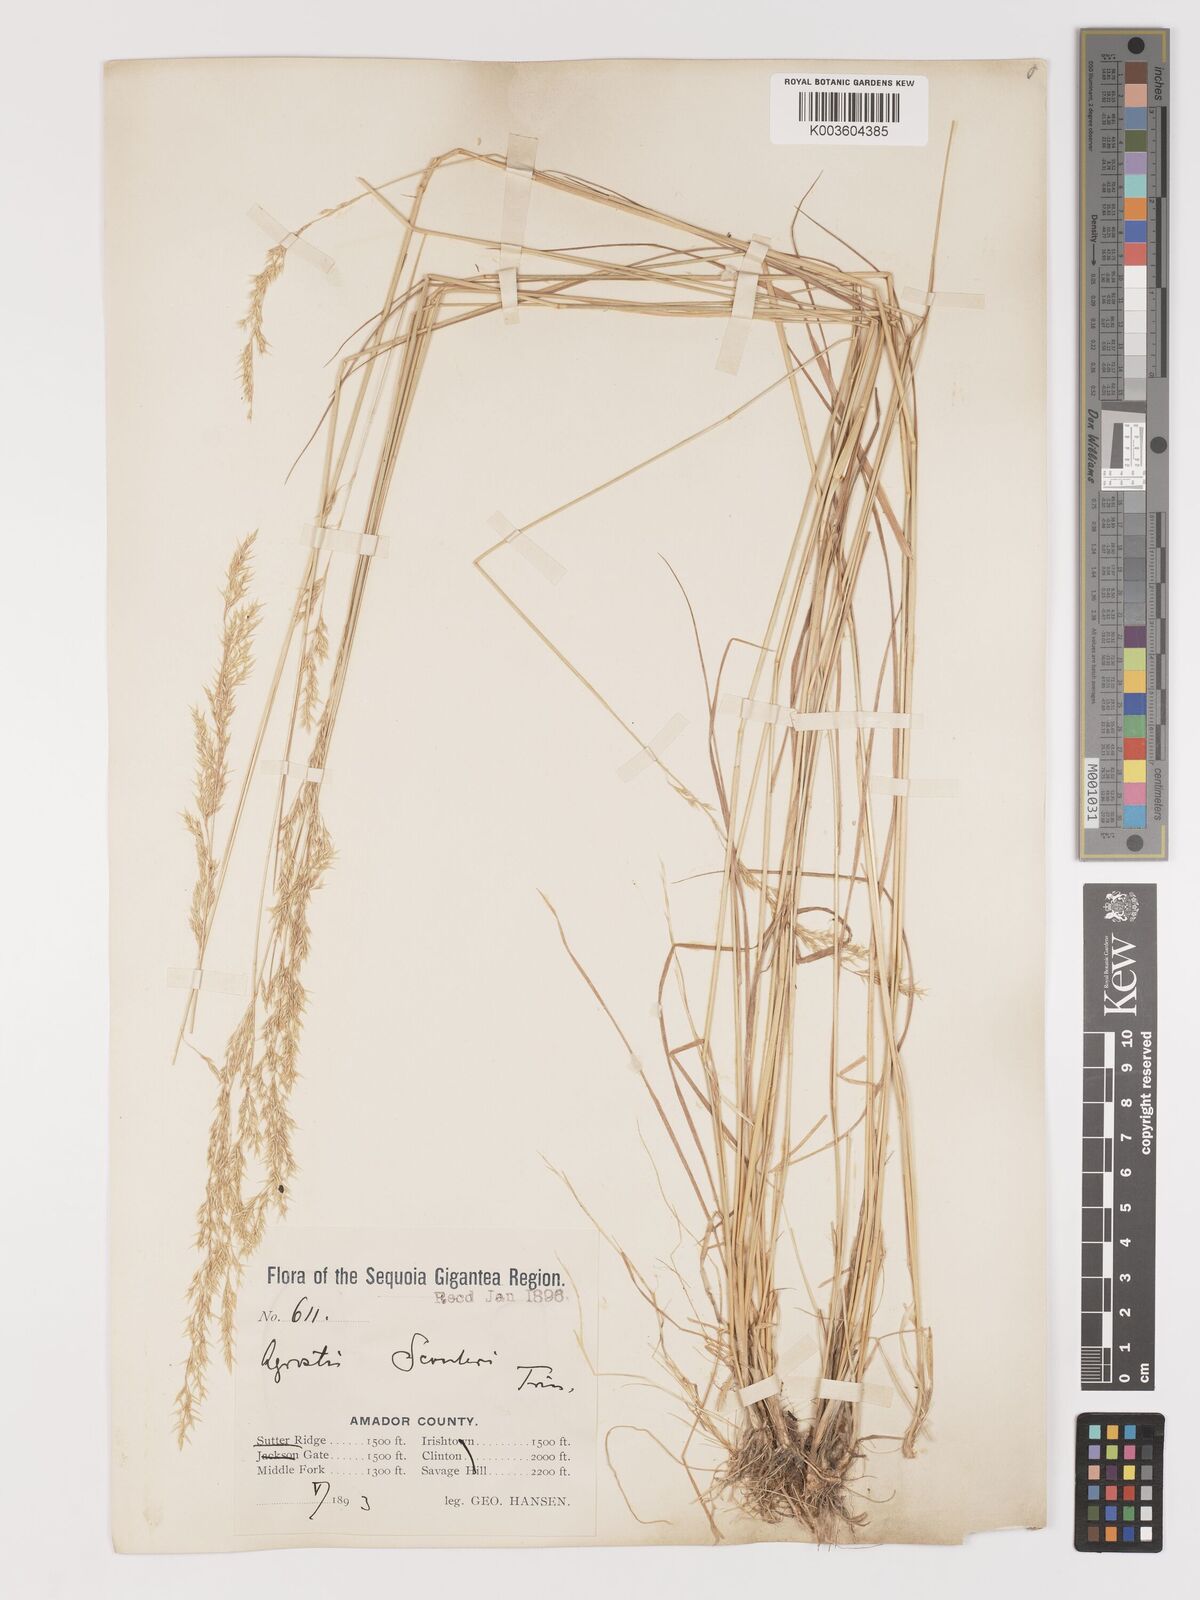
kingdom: Plantae
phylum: Tracheophyta
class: Liliopsida
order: Poales
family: Poaceae
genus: Agrostis
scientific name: Agrostis exarata
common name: Spike bent
